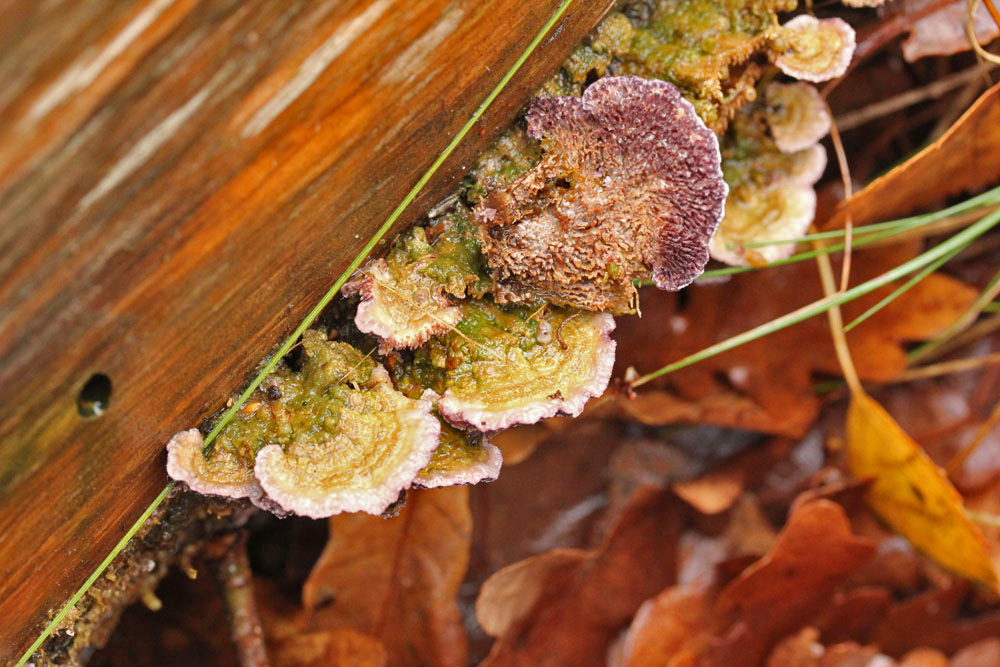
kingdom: Fungi
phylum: Basidiomycota
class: Agaricomycetes
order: Hymenochaetales
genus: Trichaptum
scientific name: Trichaptum fuscoviolaceum
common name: tandet violporesvamp
